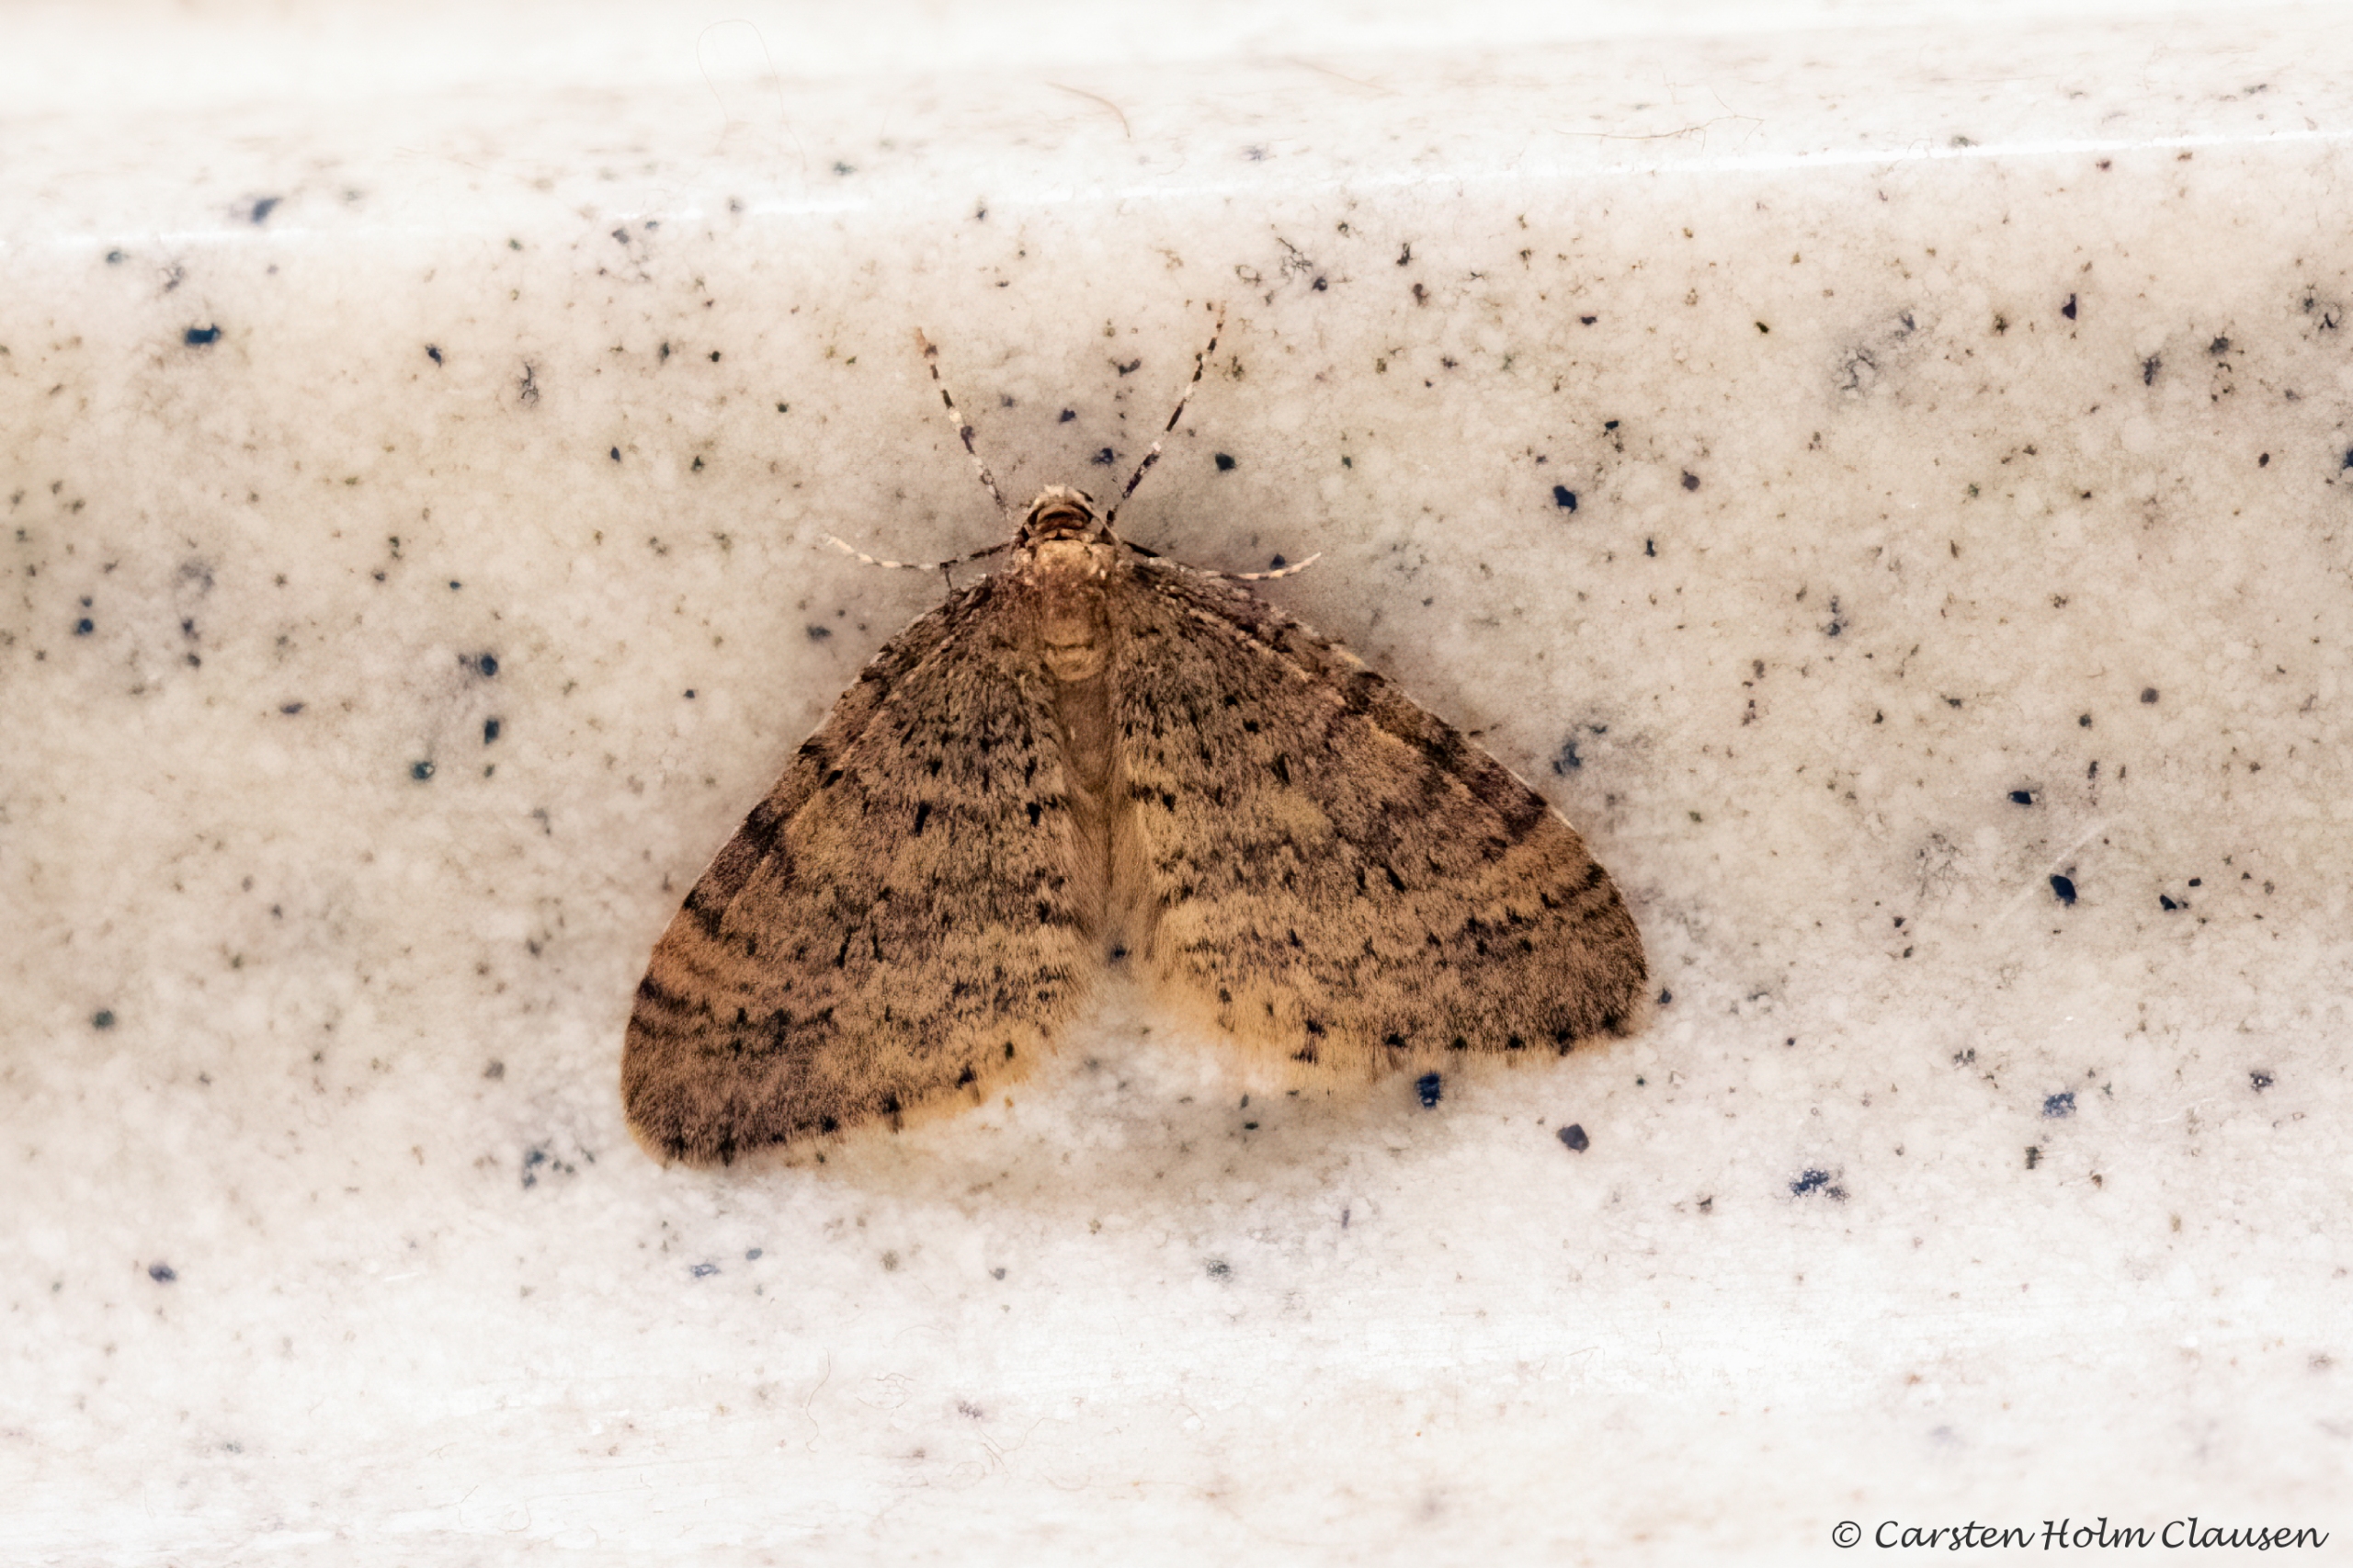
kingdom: Animalia
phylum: Arthropoda
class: Insecta
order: Lepidoptera
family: Geometridae
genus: Operophtera
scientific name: Operophtera brumata
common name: Lille frostmåler
